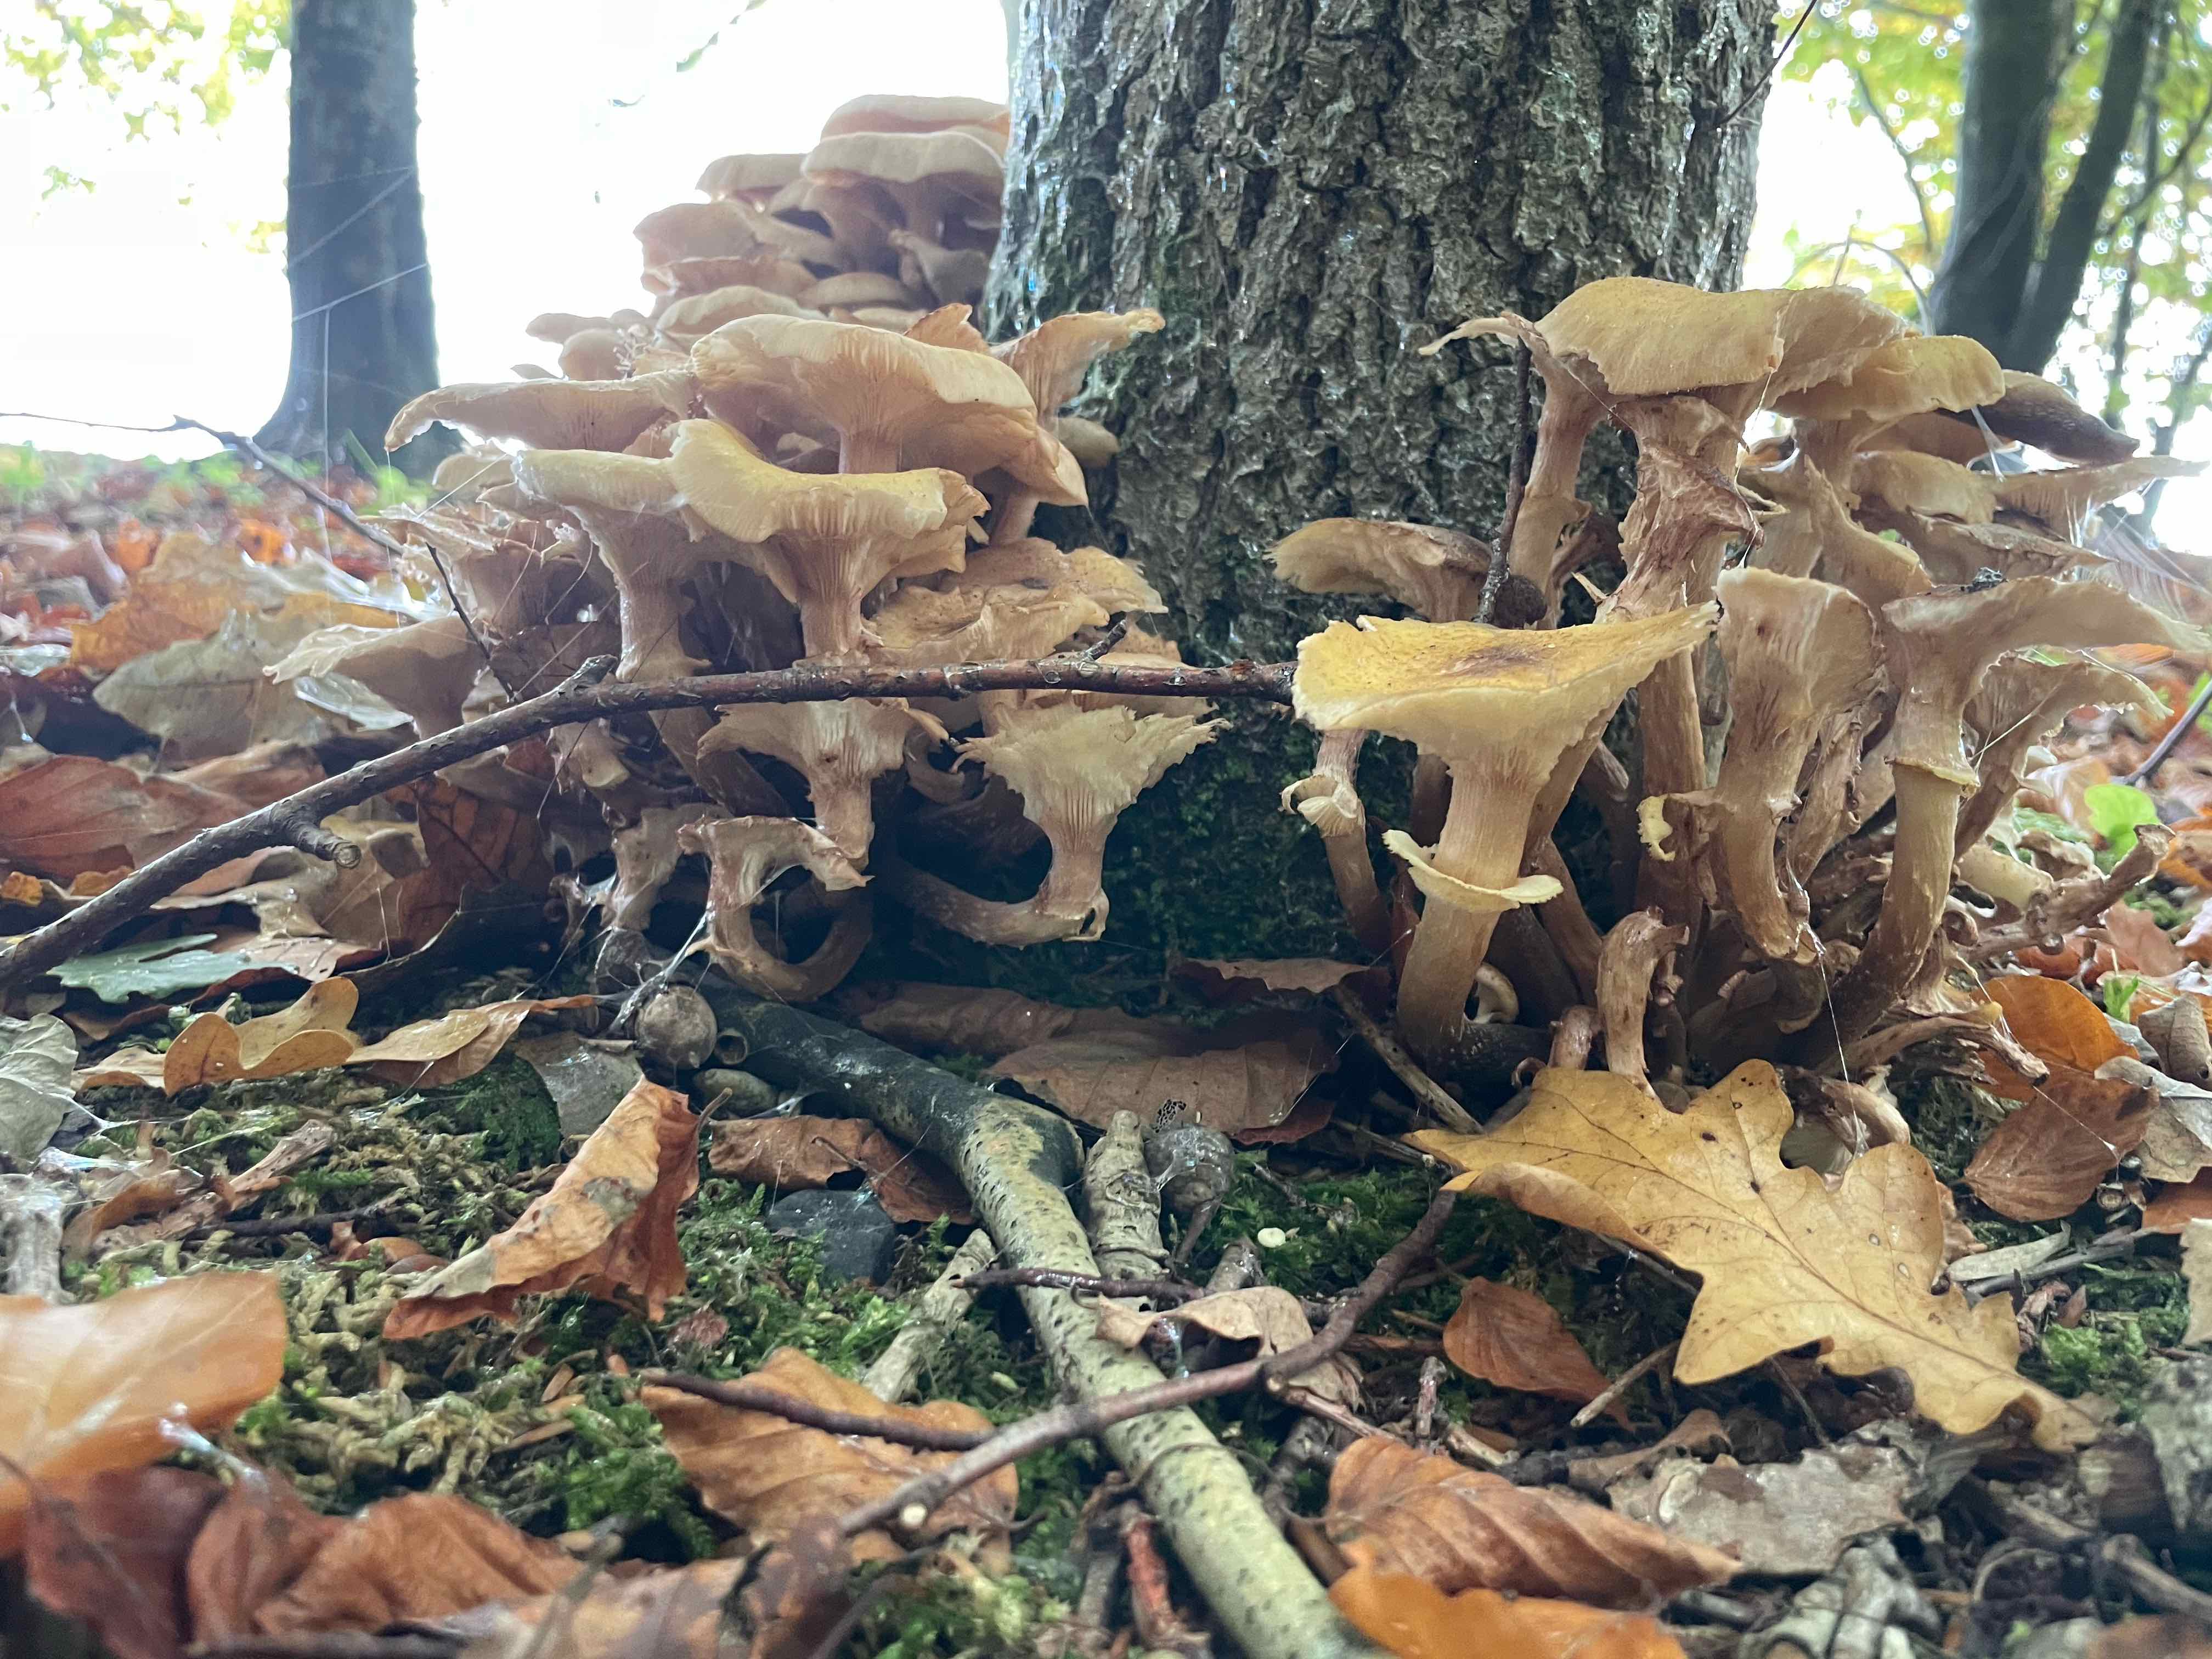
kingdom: Fungi
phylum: Basidiomycota
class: Agaricomycetes
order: Agaricales
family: Physalacriaceae
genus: Armillaria
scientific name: Armillaria mellea
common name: ægte honningsvamp
